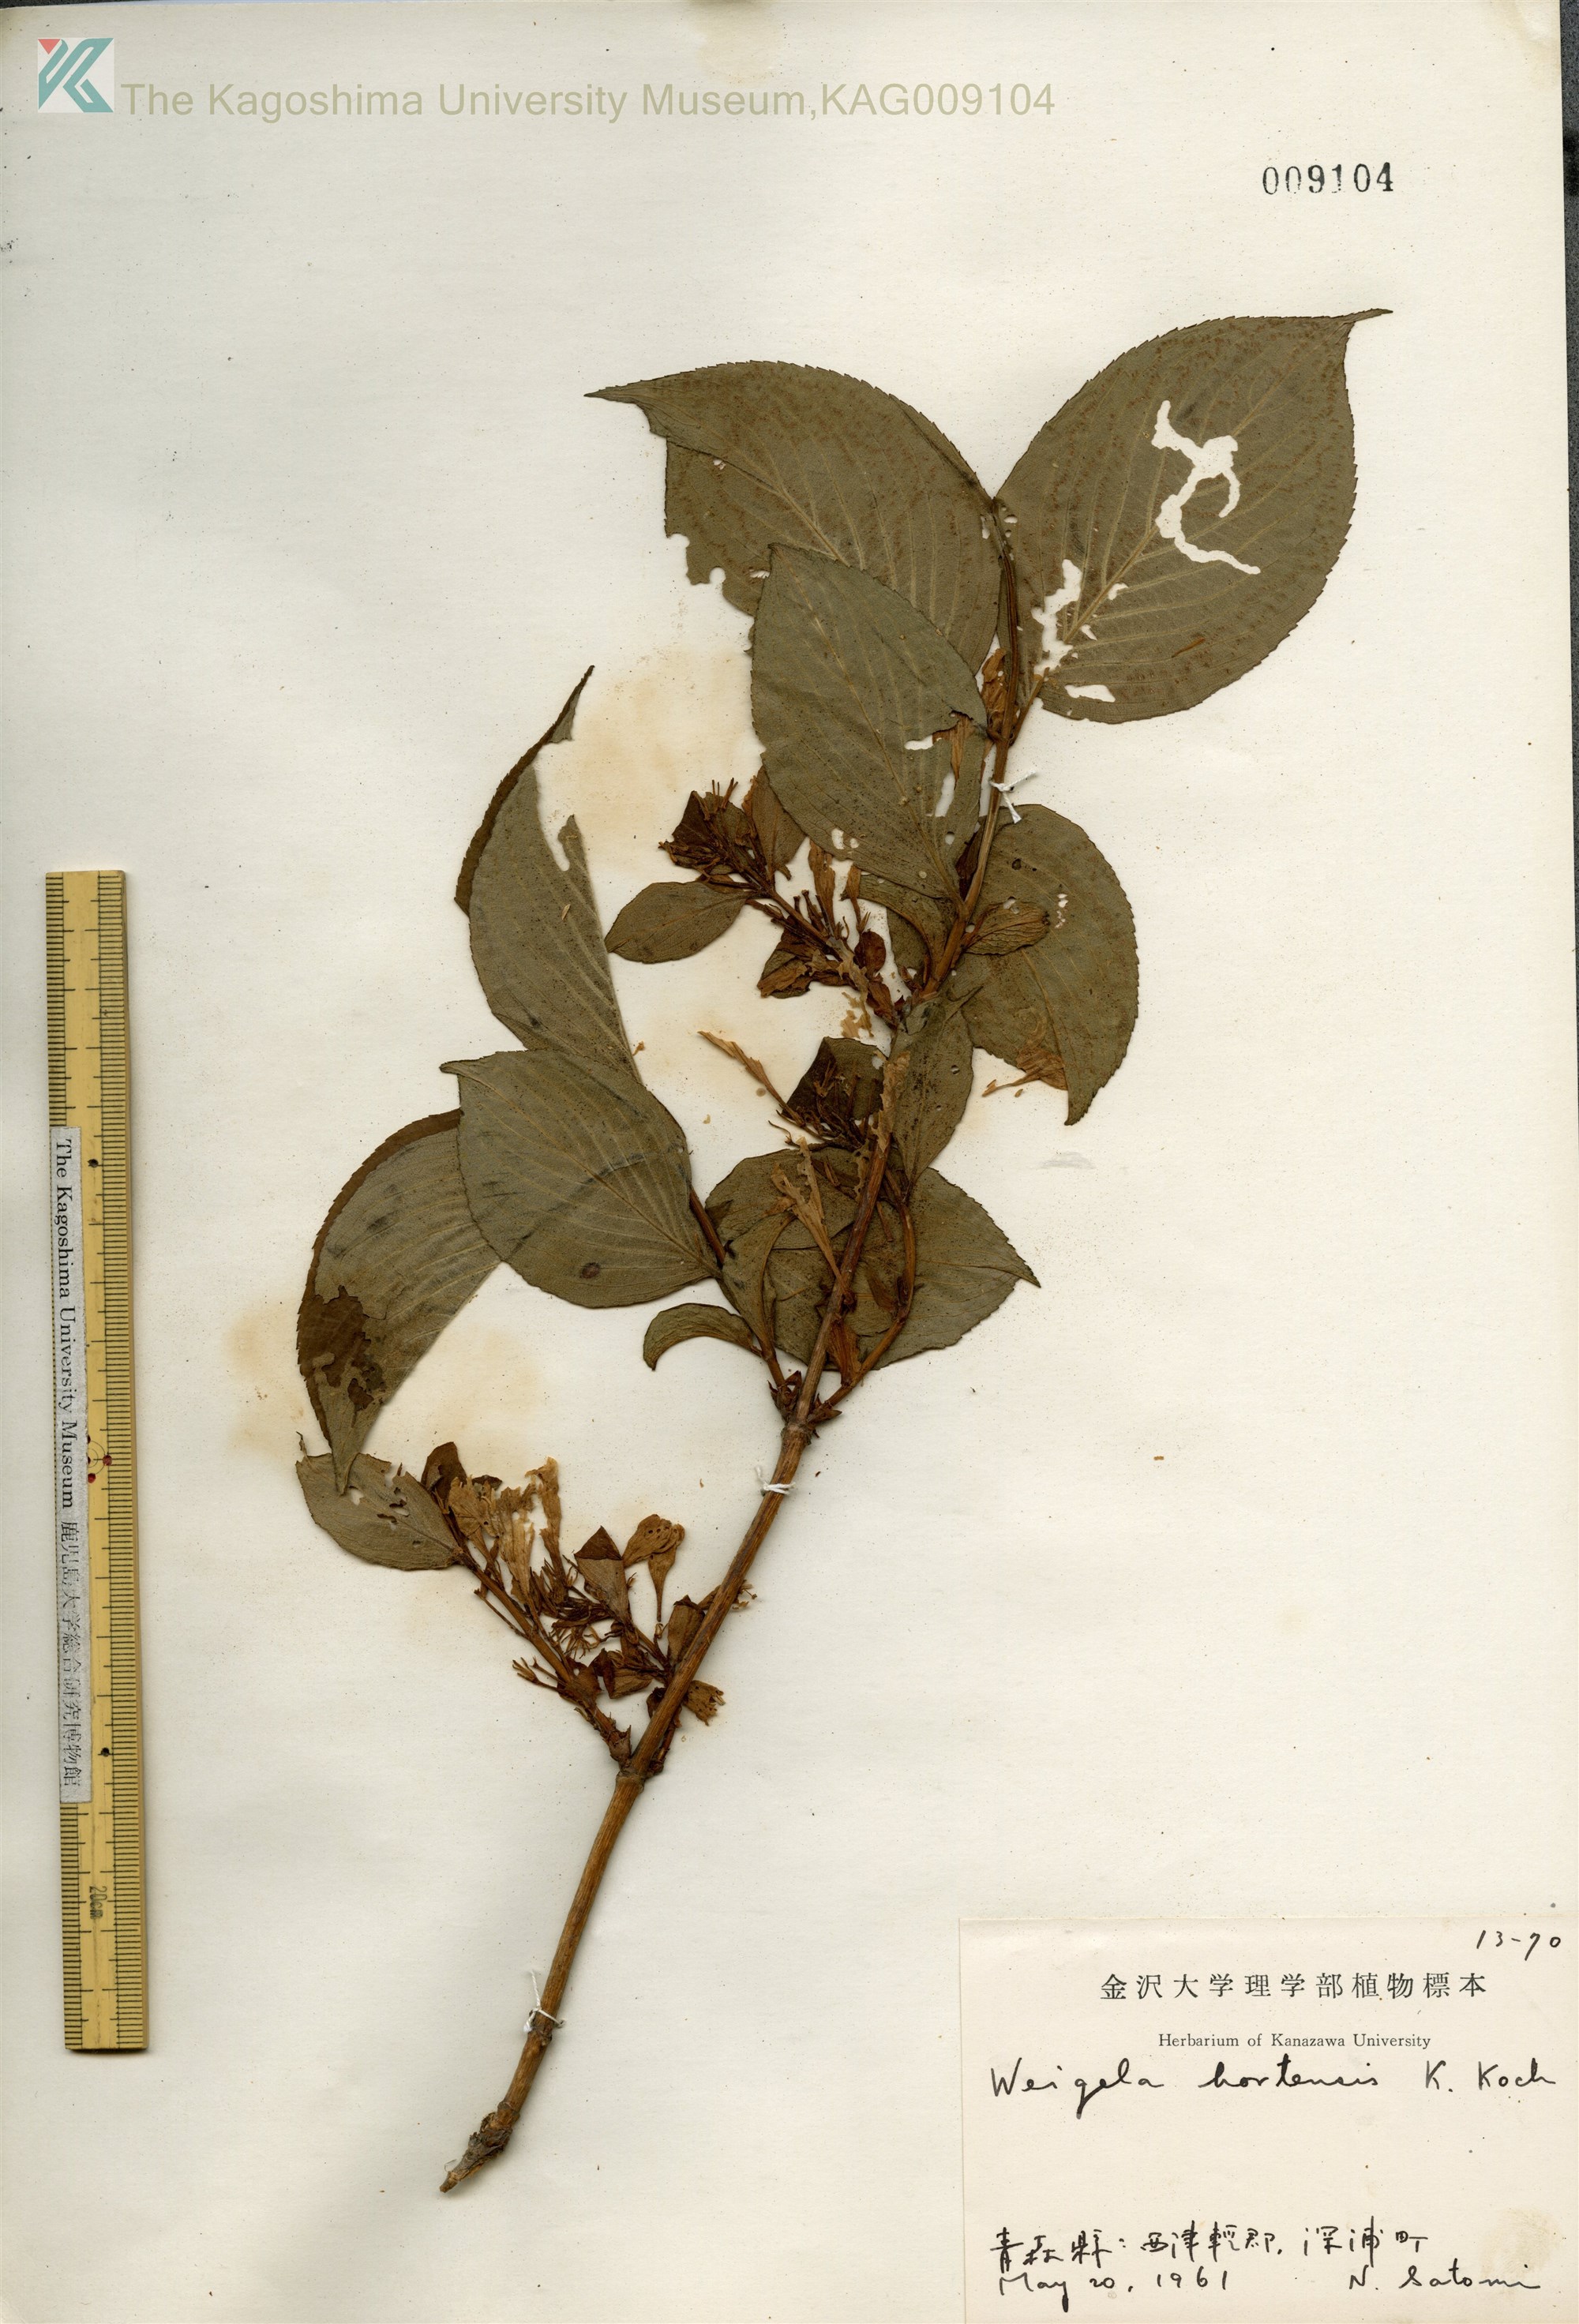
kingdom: Plantae
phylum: Tracheophyta
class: Magnoliopsida
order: Dipsacales
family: Caprifoliaceae
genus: Weigela
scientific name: Weigela hortensis
